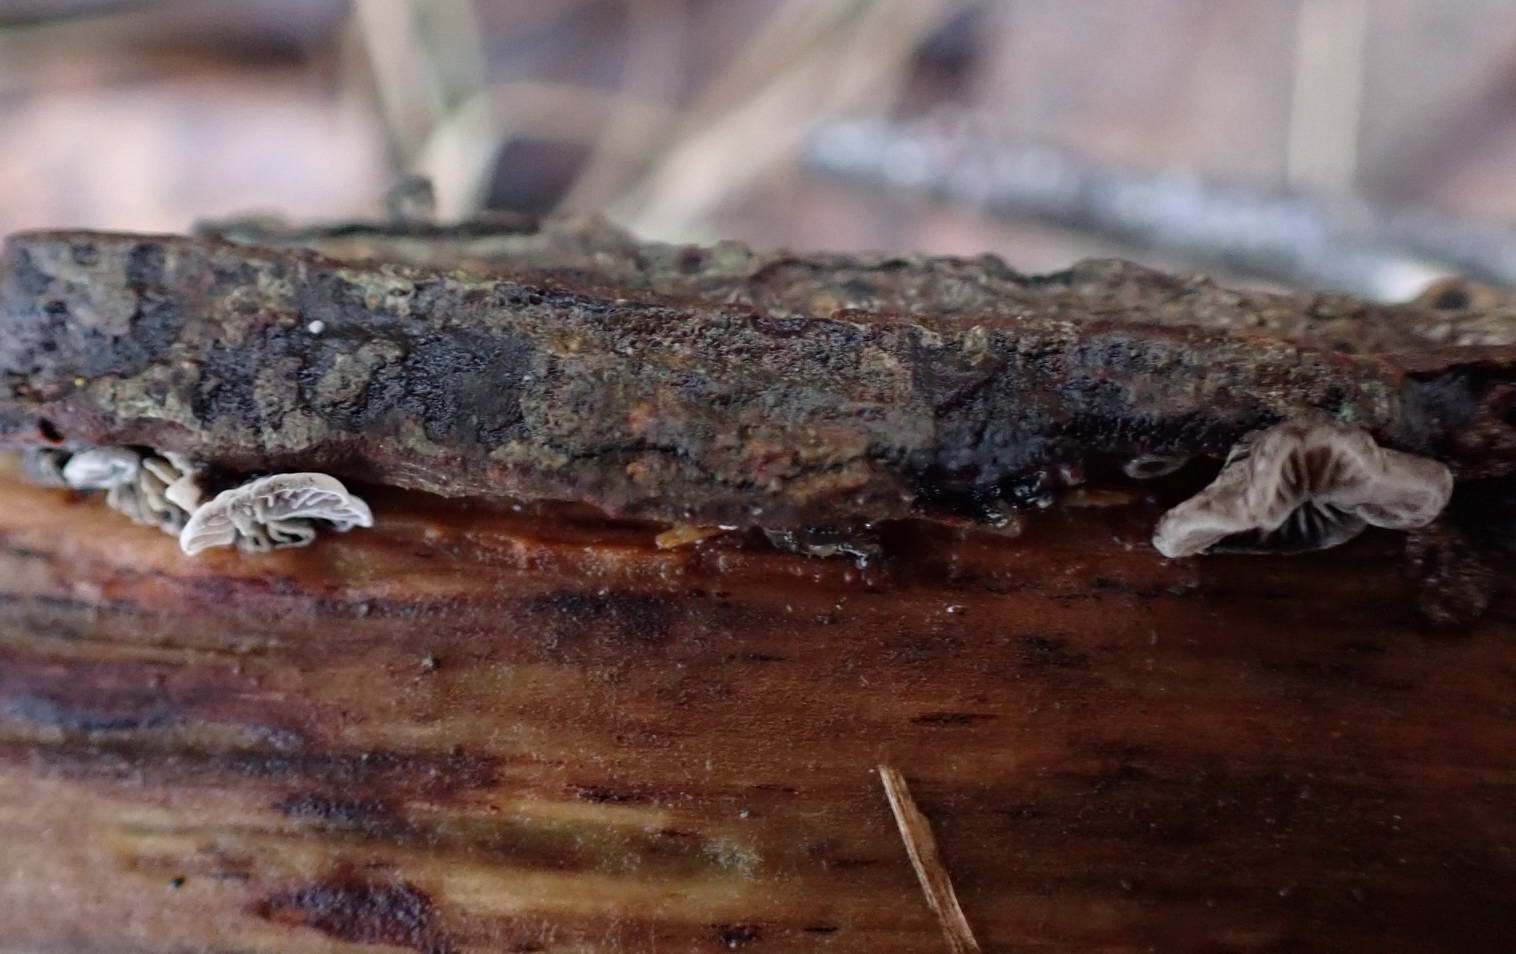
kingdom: Fungi
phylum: Basidiomycota
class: Agaricomycetes
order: Agaricales
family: Pleurotaceae
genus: Resupinatus
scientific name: Resupinatus applicatus
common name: lysfiltet barkhat
